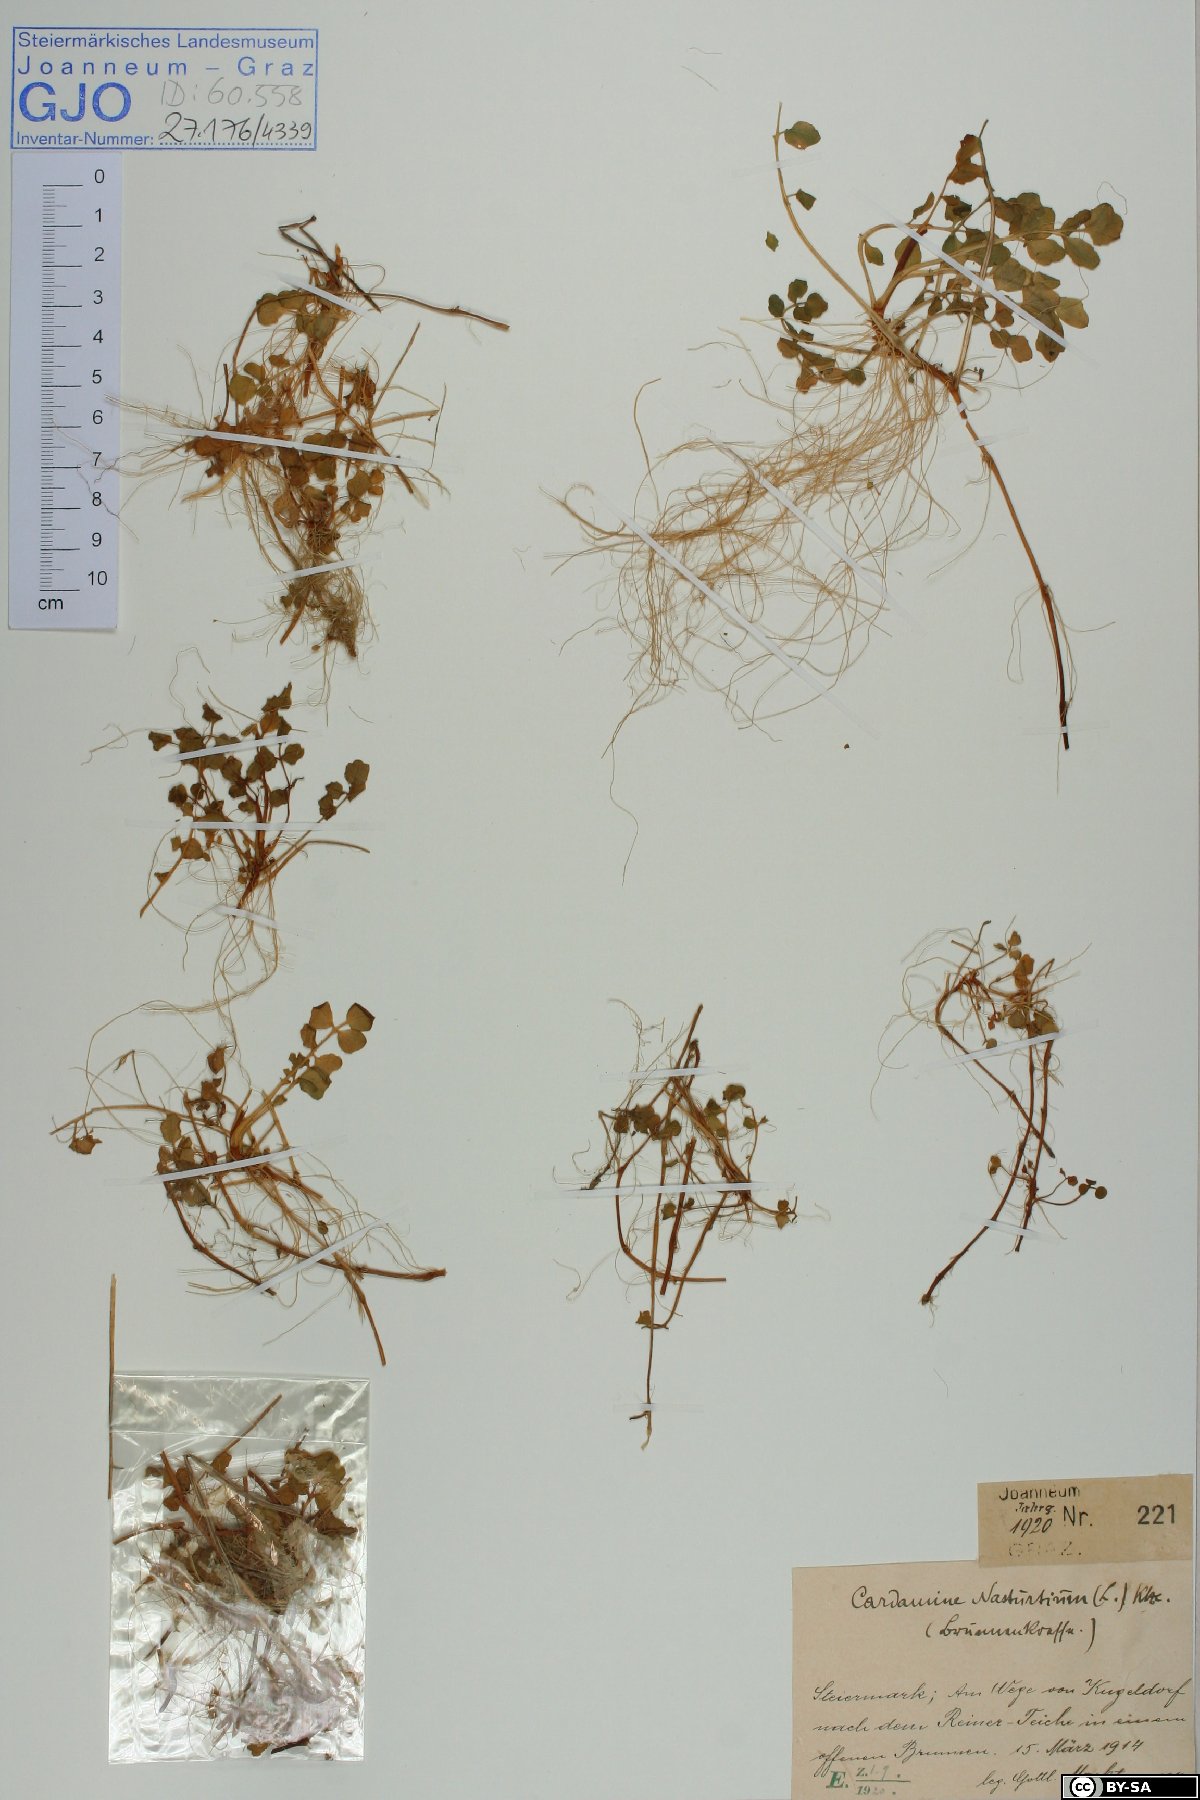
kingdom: Plantae
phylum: Tracheophyta
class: Magnoliopsida
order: Brassicales
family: Brassicaceae
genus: Nasturtium
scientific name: Nasturtium officinale
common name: Watercress
